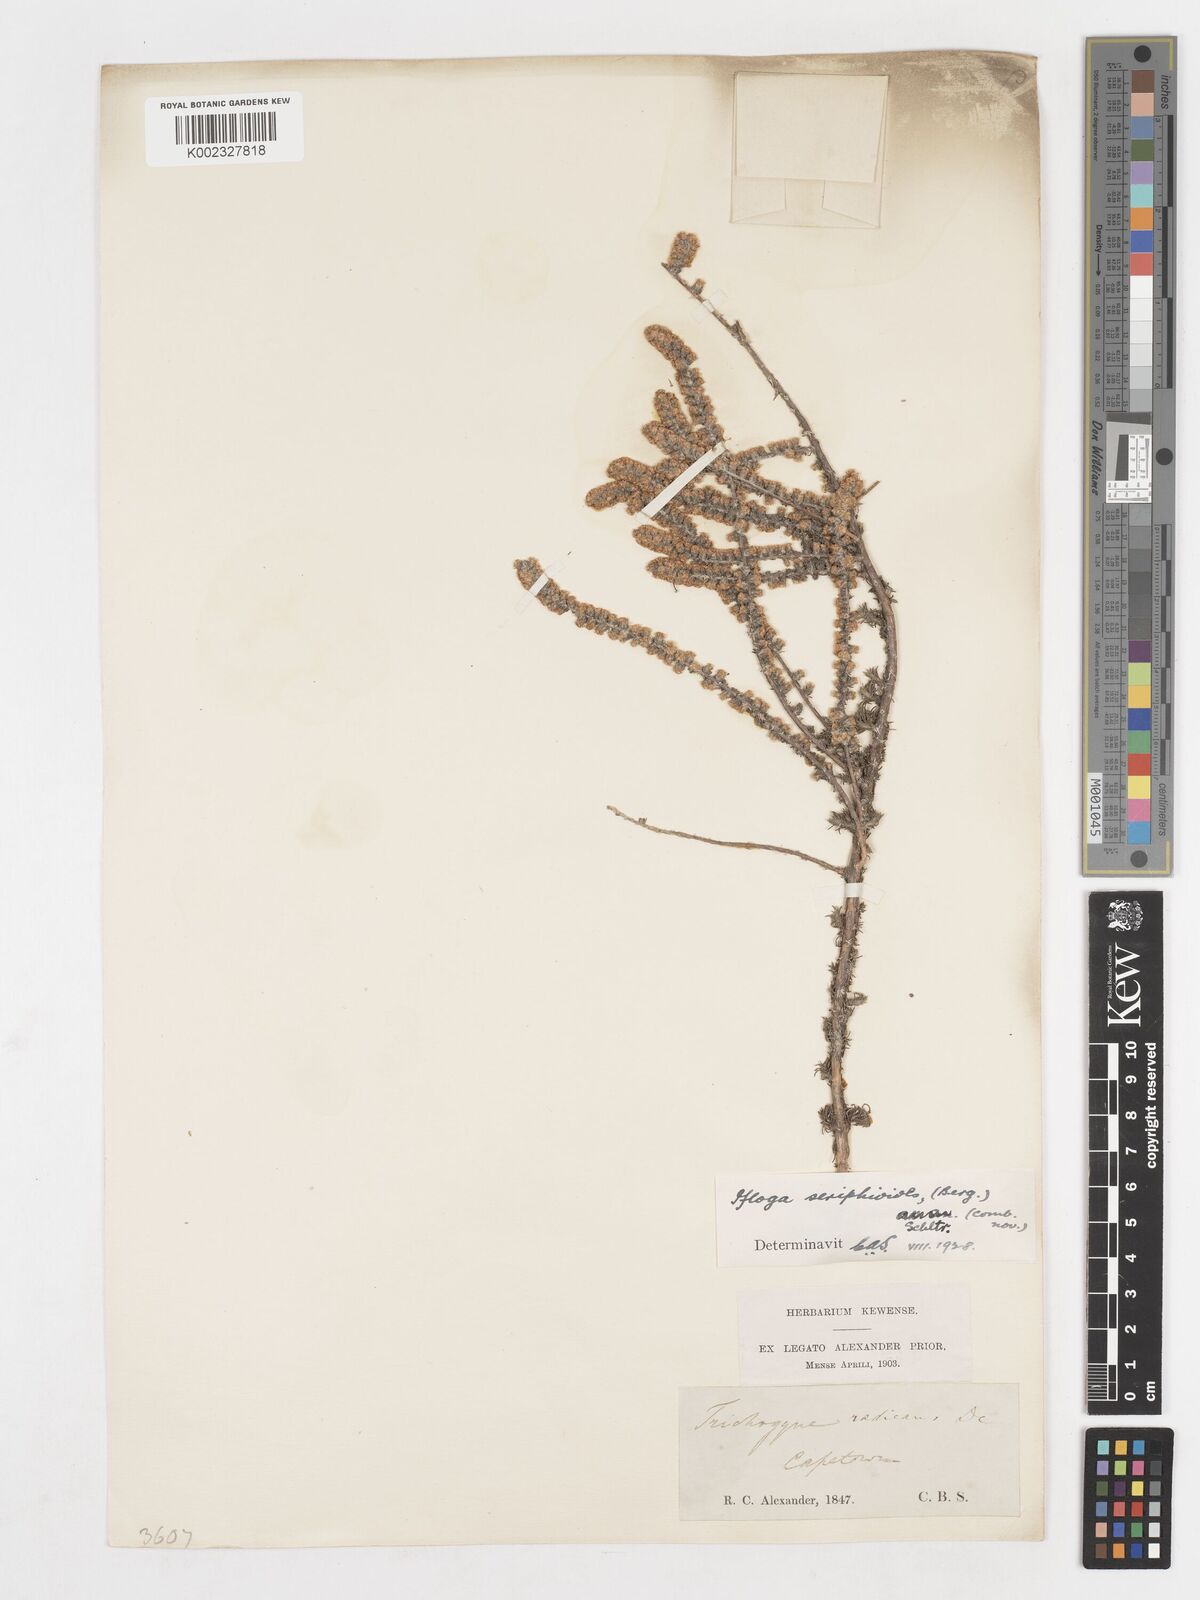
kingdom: Plantae
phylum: Tracheophyta
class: Magnoliopsida
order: Asterales
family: Asteraceae
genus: Ifloga
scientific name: Ifloga ambigua
